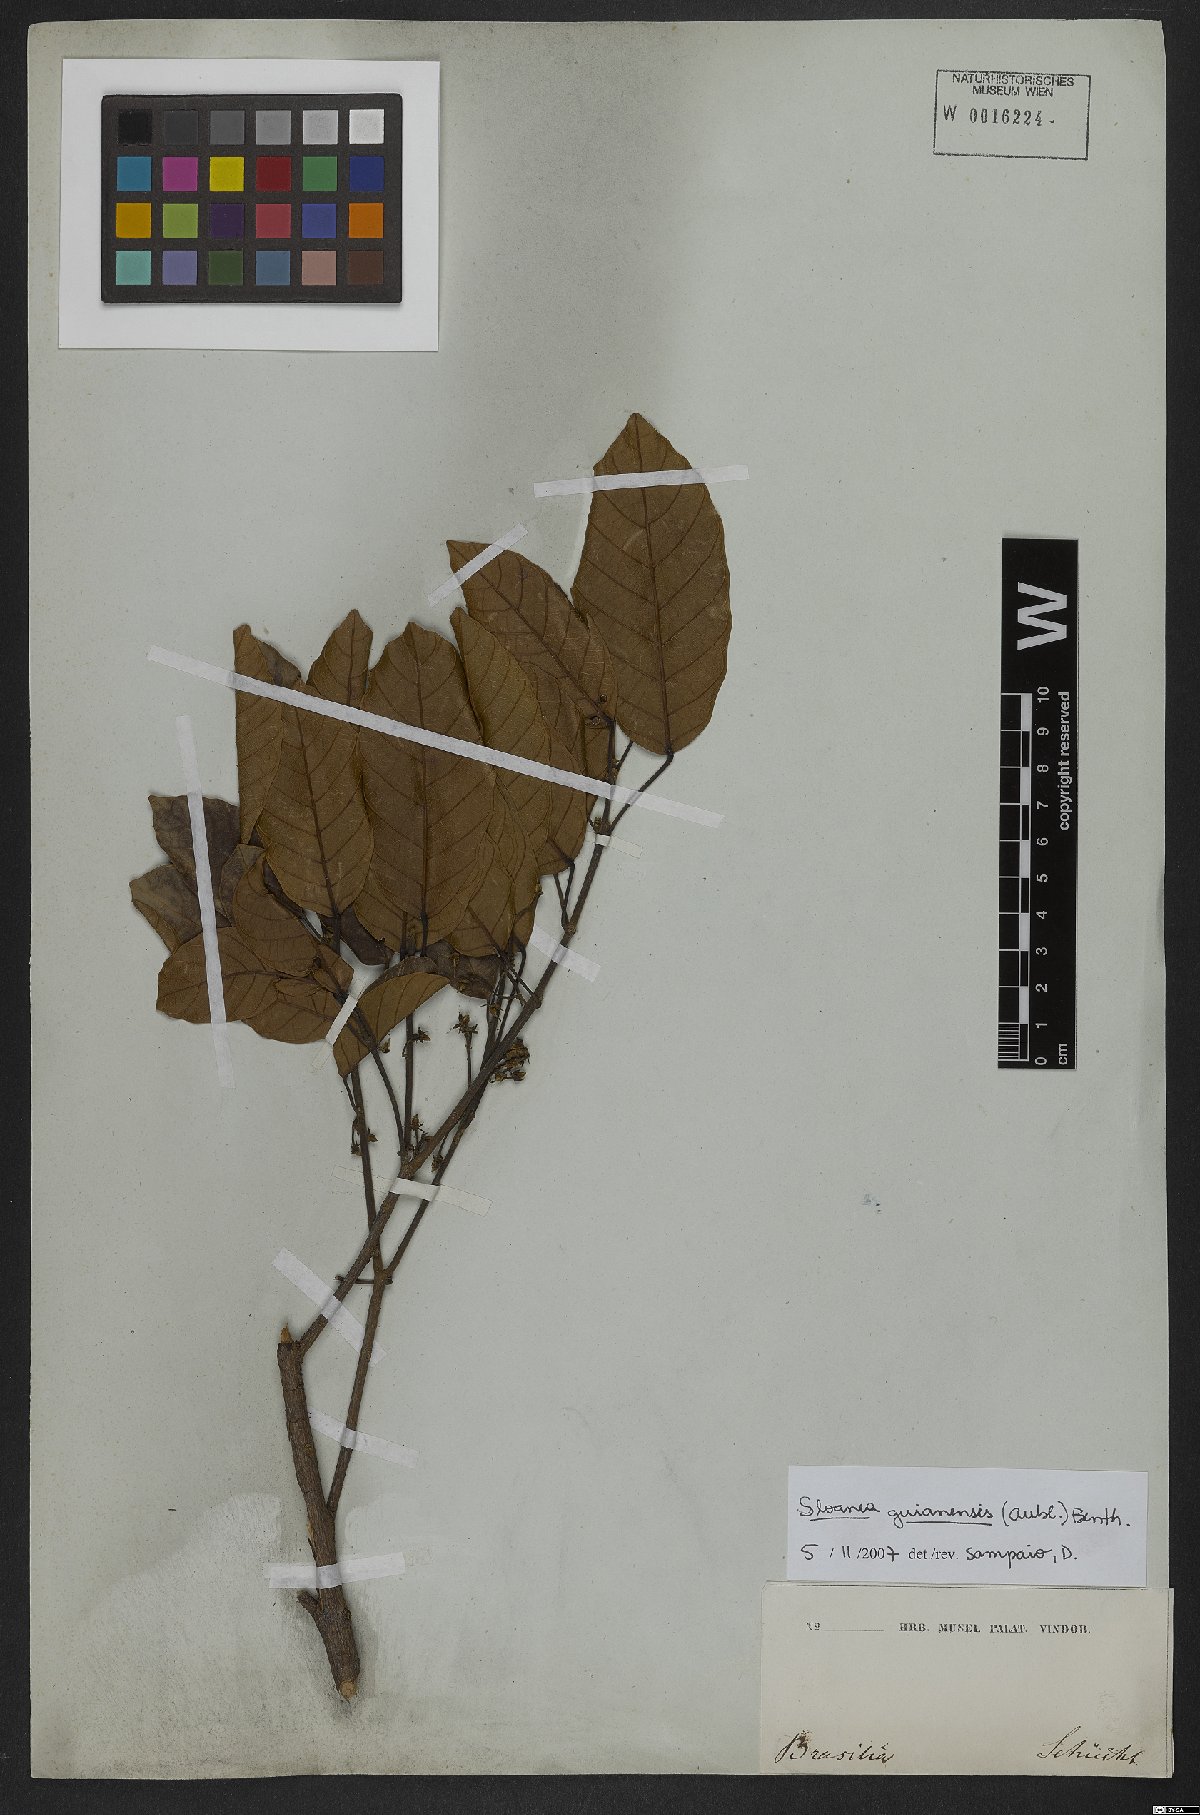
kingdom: Plantae
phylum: Tracheophyta
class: Magnoliopsida
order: Oxalidales
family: Elaeocarpaceae
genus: Sloanea
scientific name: Sloanea guianensis
